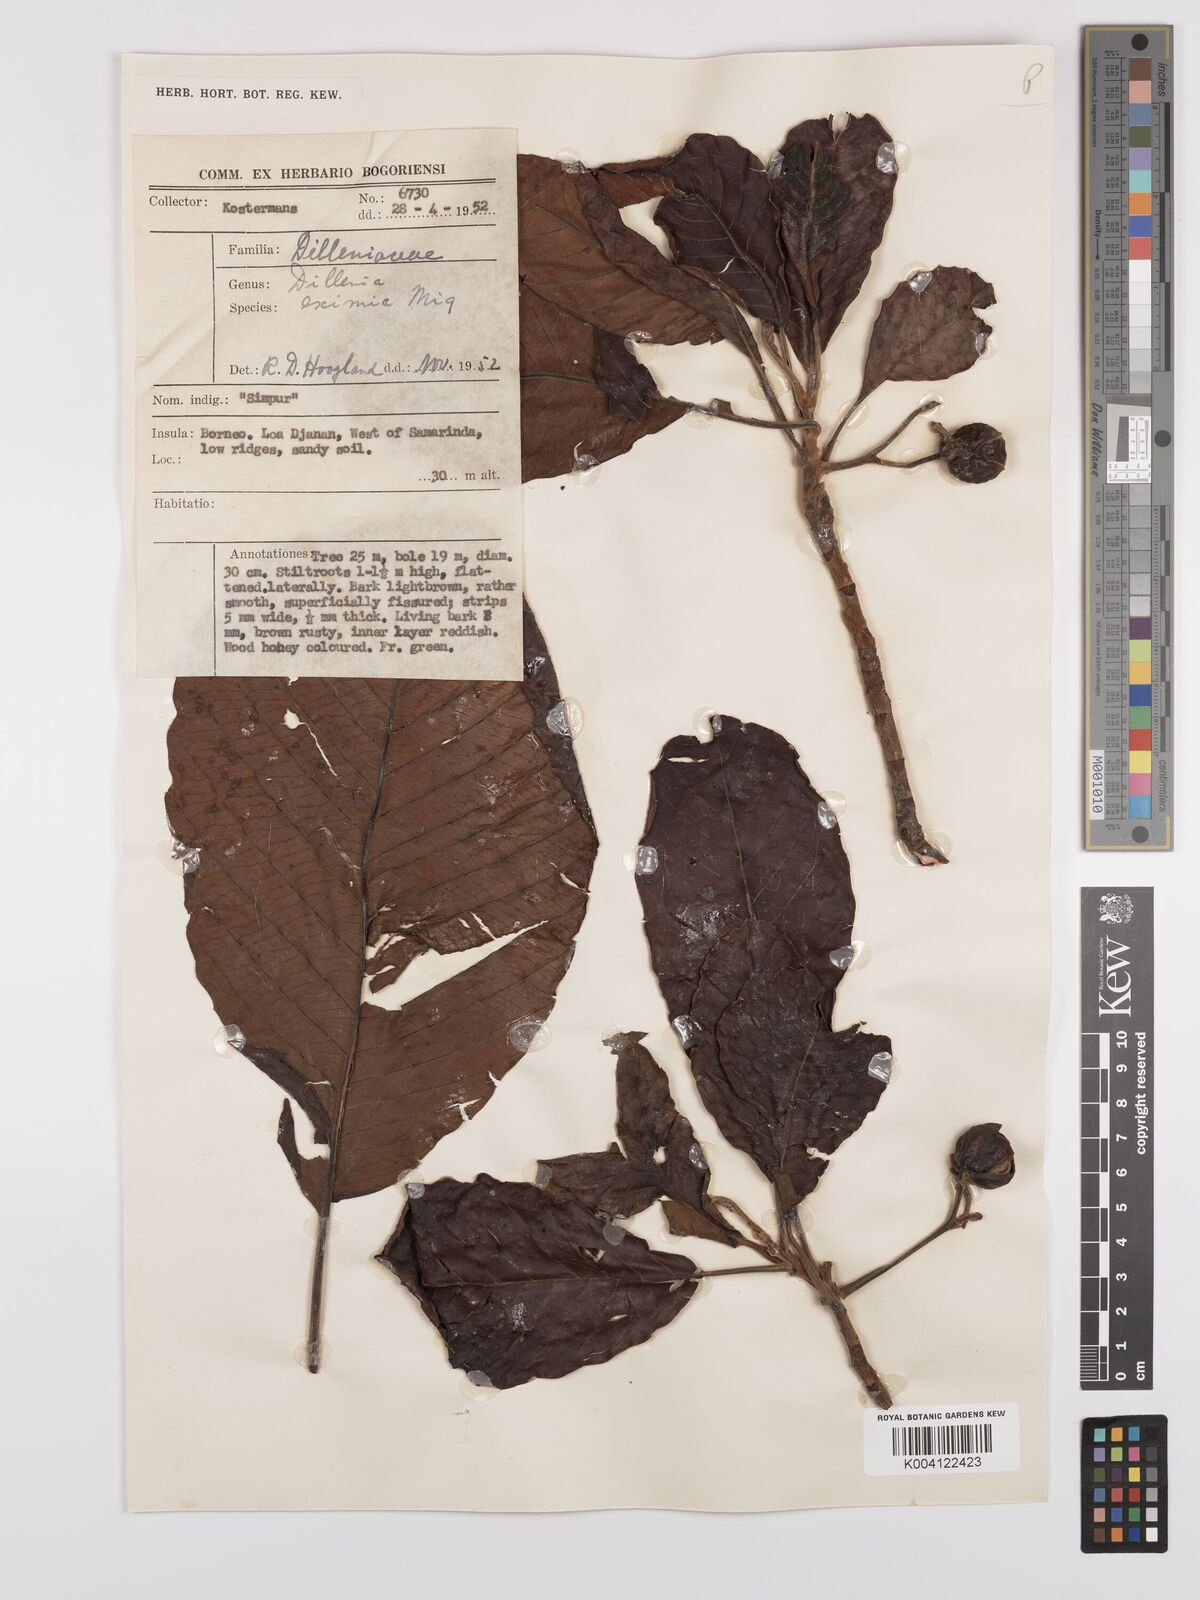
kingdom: Plantae
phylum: Tracheophyta
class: Magnoliopsida
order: Dilleniales
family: Dilleniaceae
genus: Dillenia
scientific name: Dillenia grandifolia
